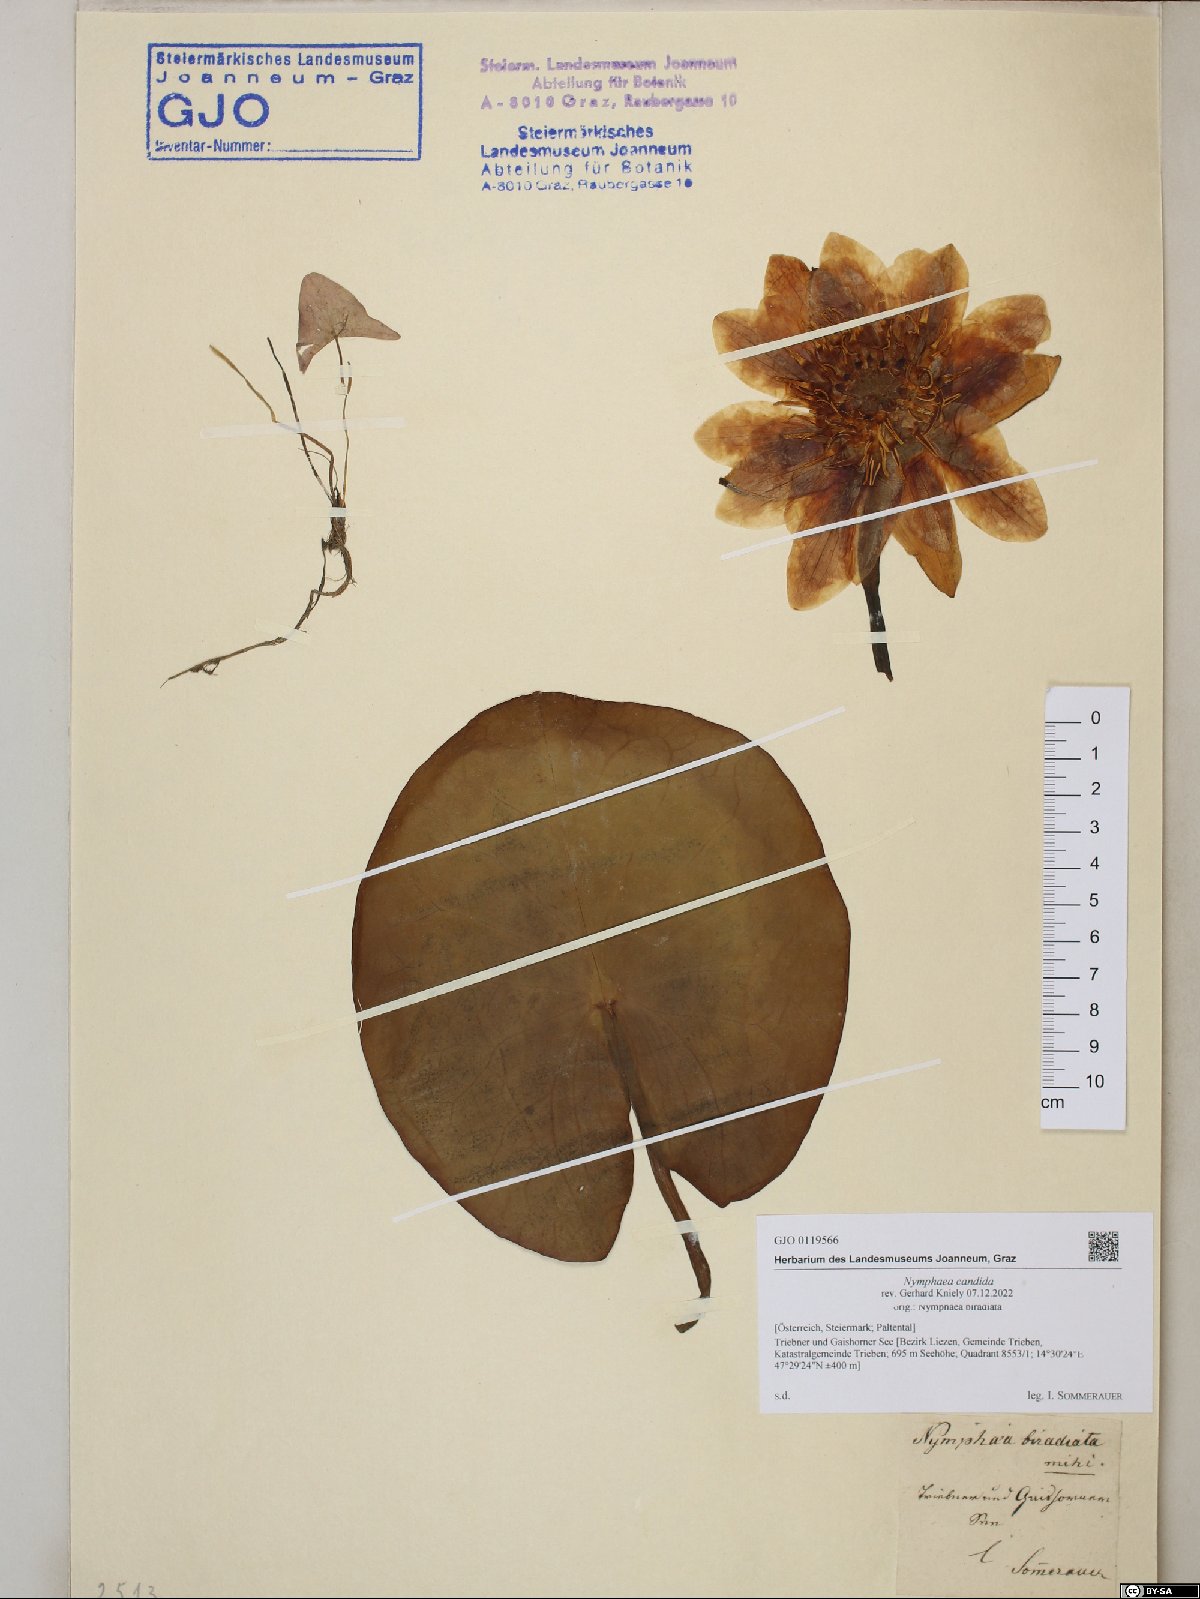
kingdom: Plantae
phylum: Tracheophyta
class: Magnoliopsida
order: Nymphaeales
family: Nymphaeaceae
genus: Nymphaea
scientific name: Nymphaea candida
